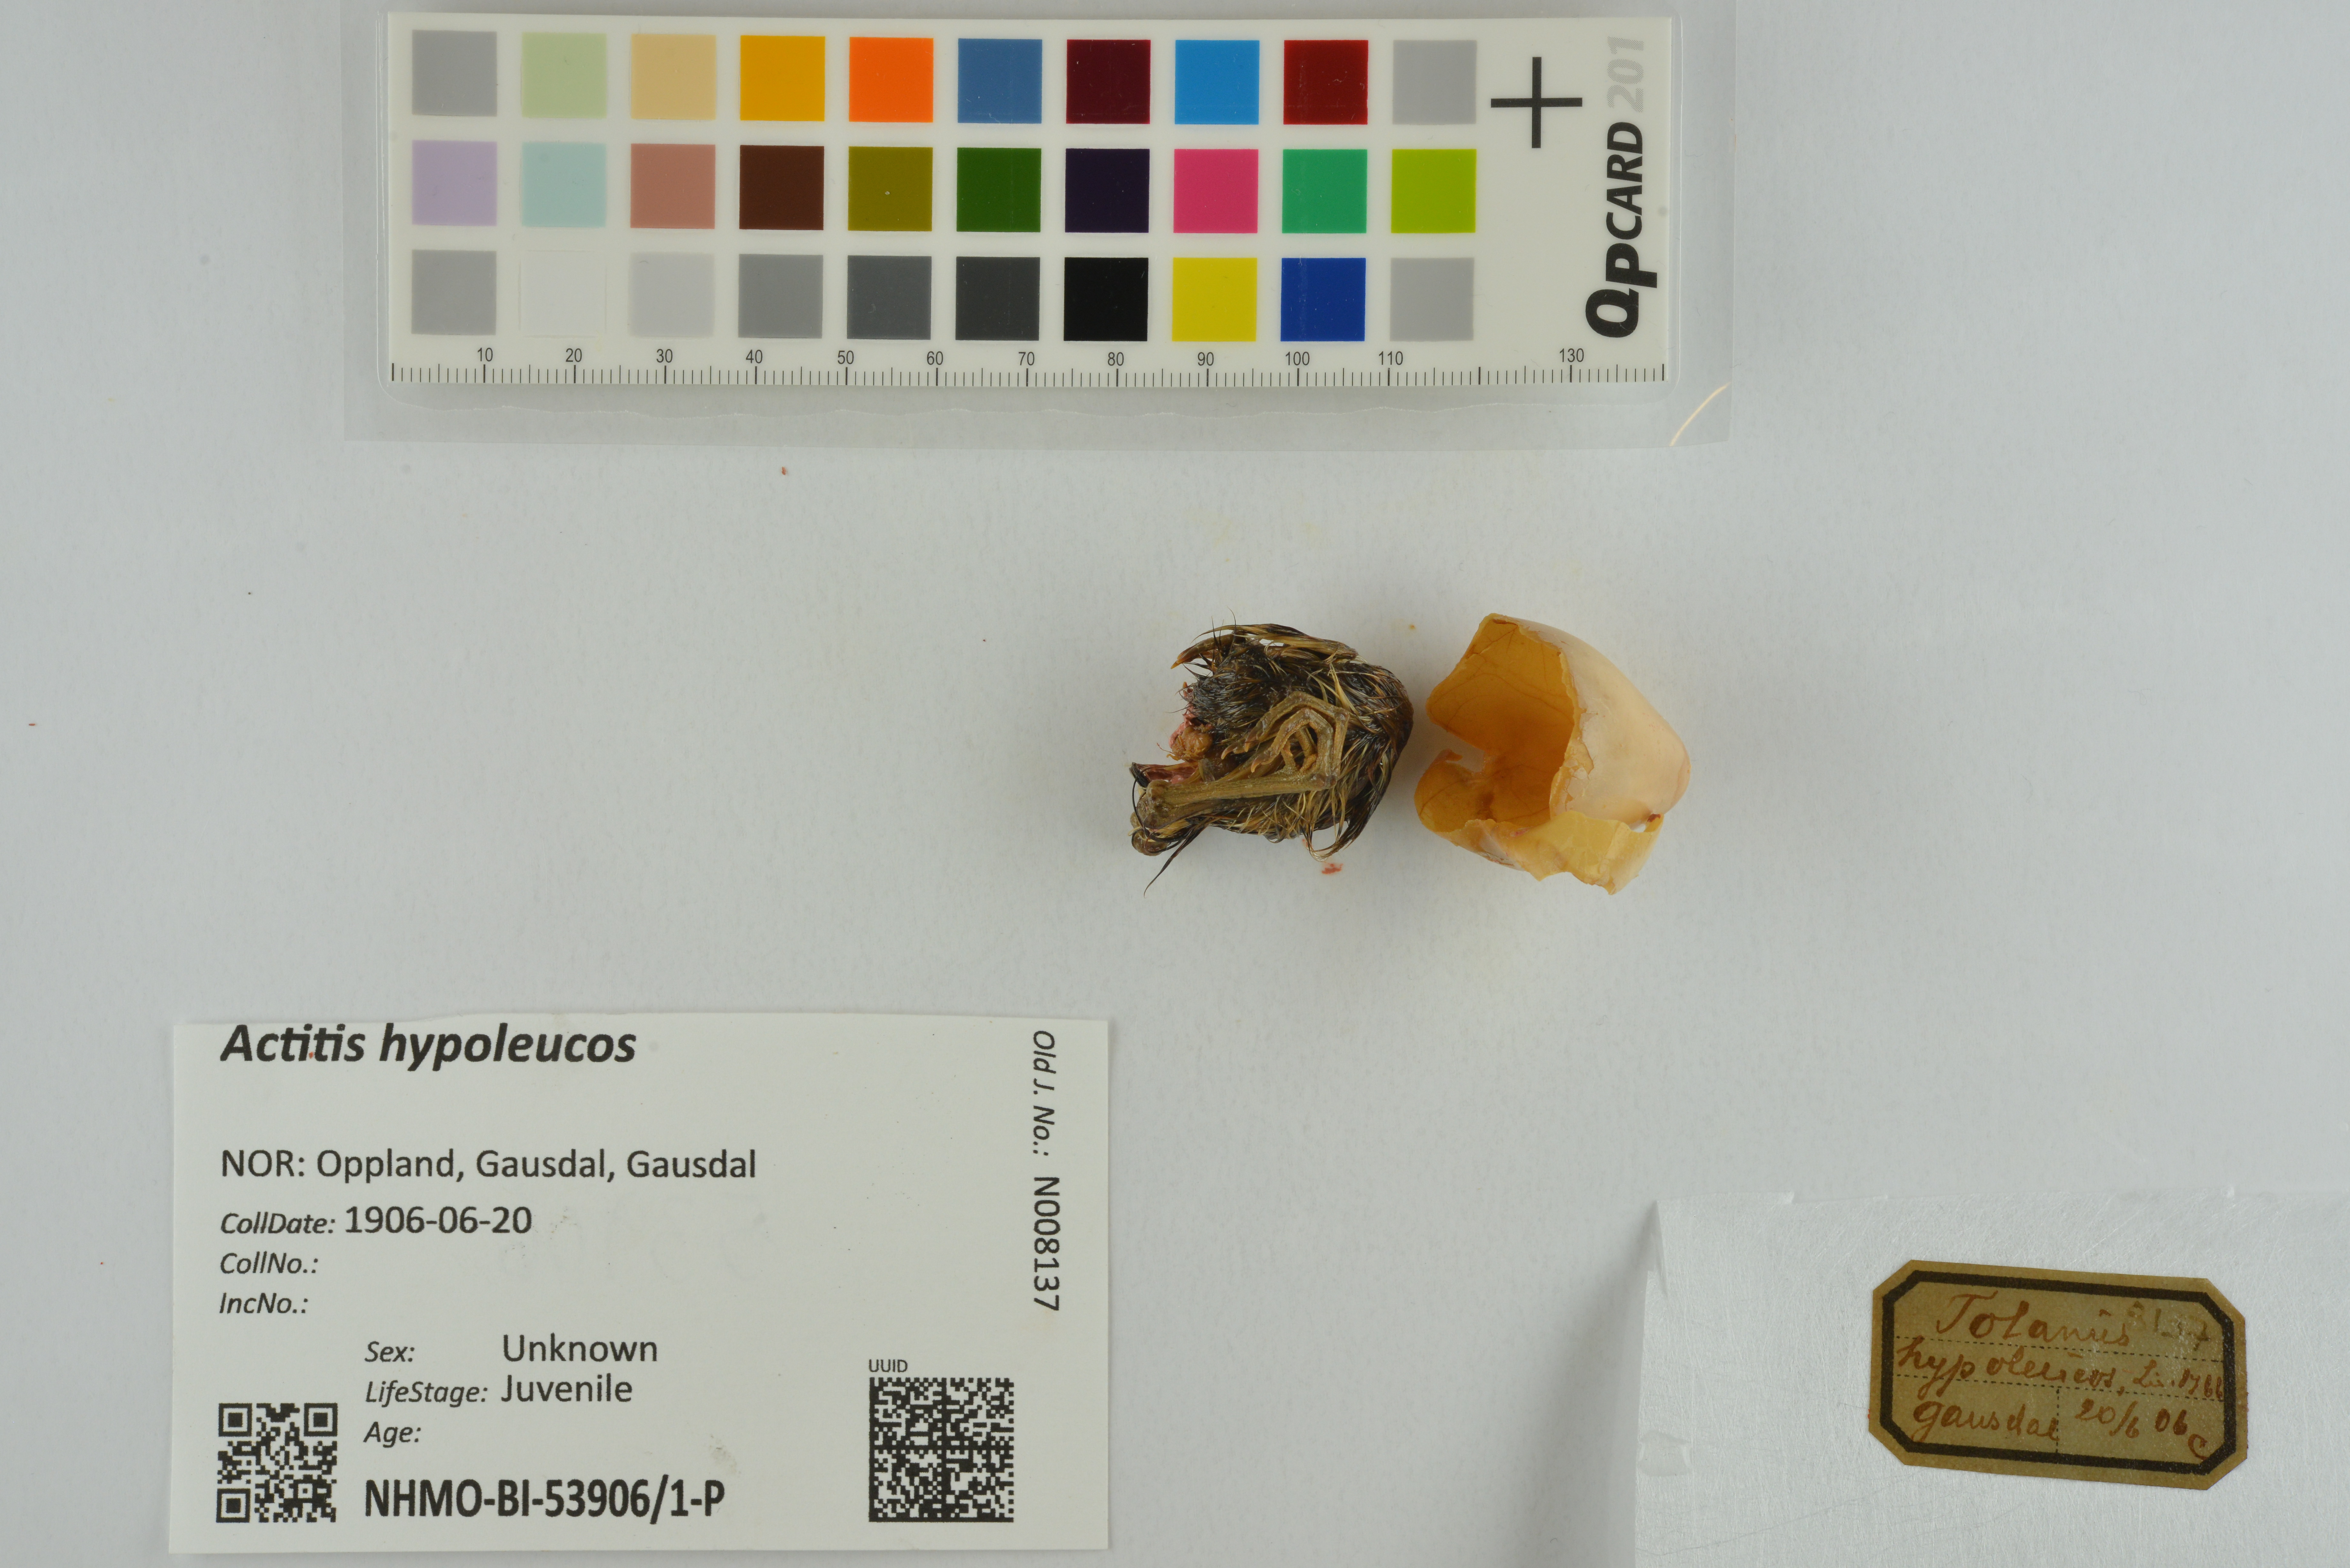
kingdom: Animalia
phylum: Chordata
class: Aves
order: Charadriiformes
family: Scolopacidae
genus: Actitis
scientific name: Actitis hypoleucos
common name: Common sandpiper
